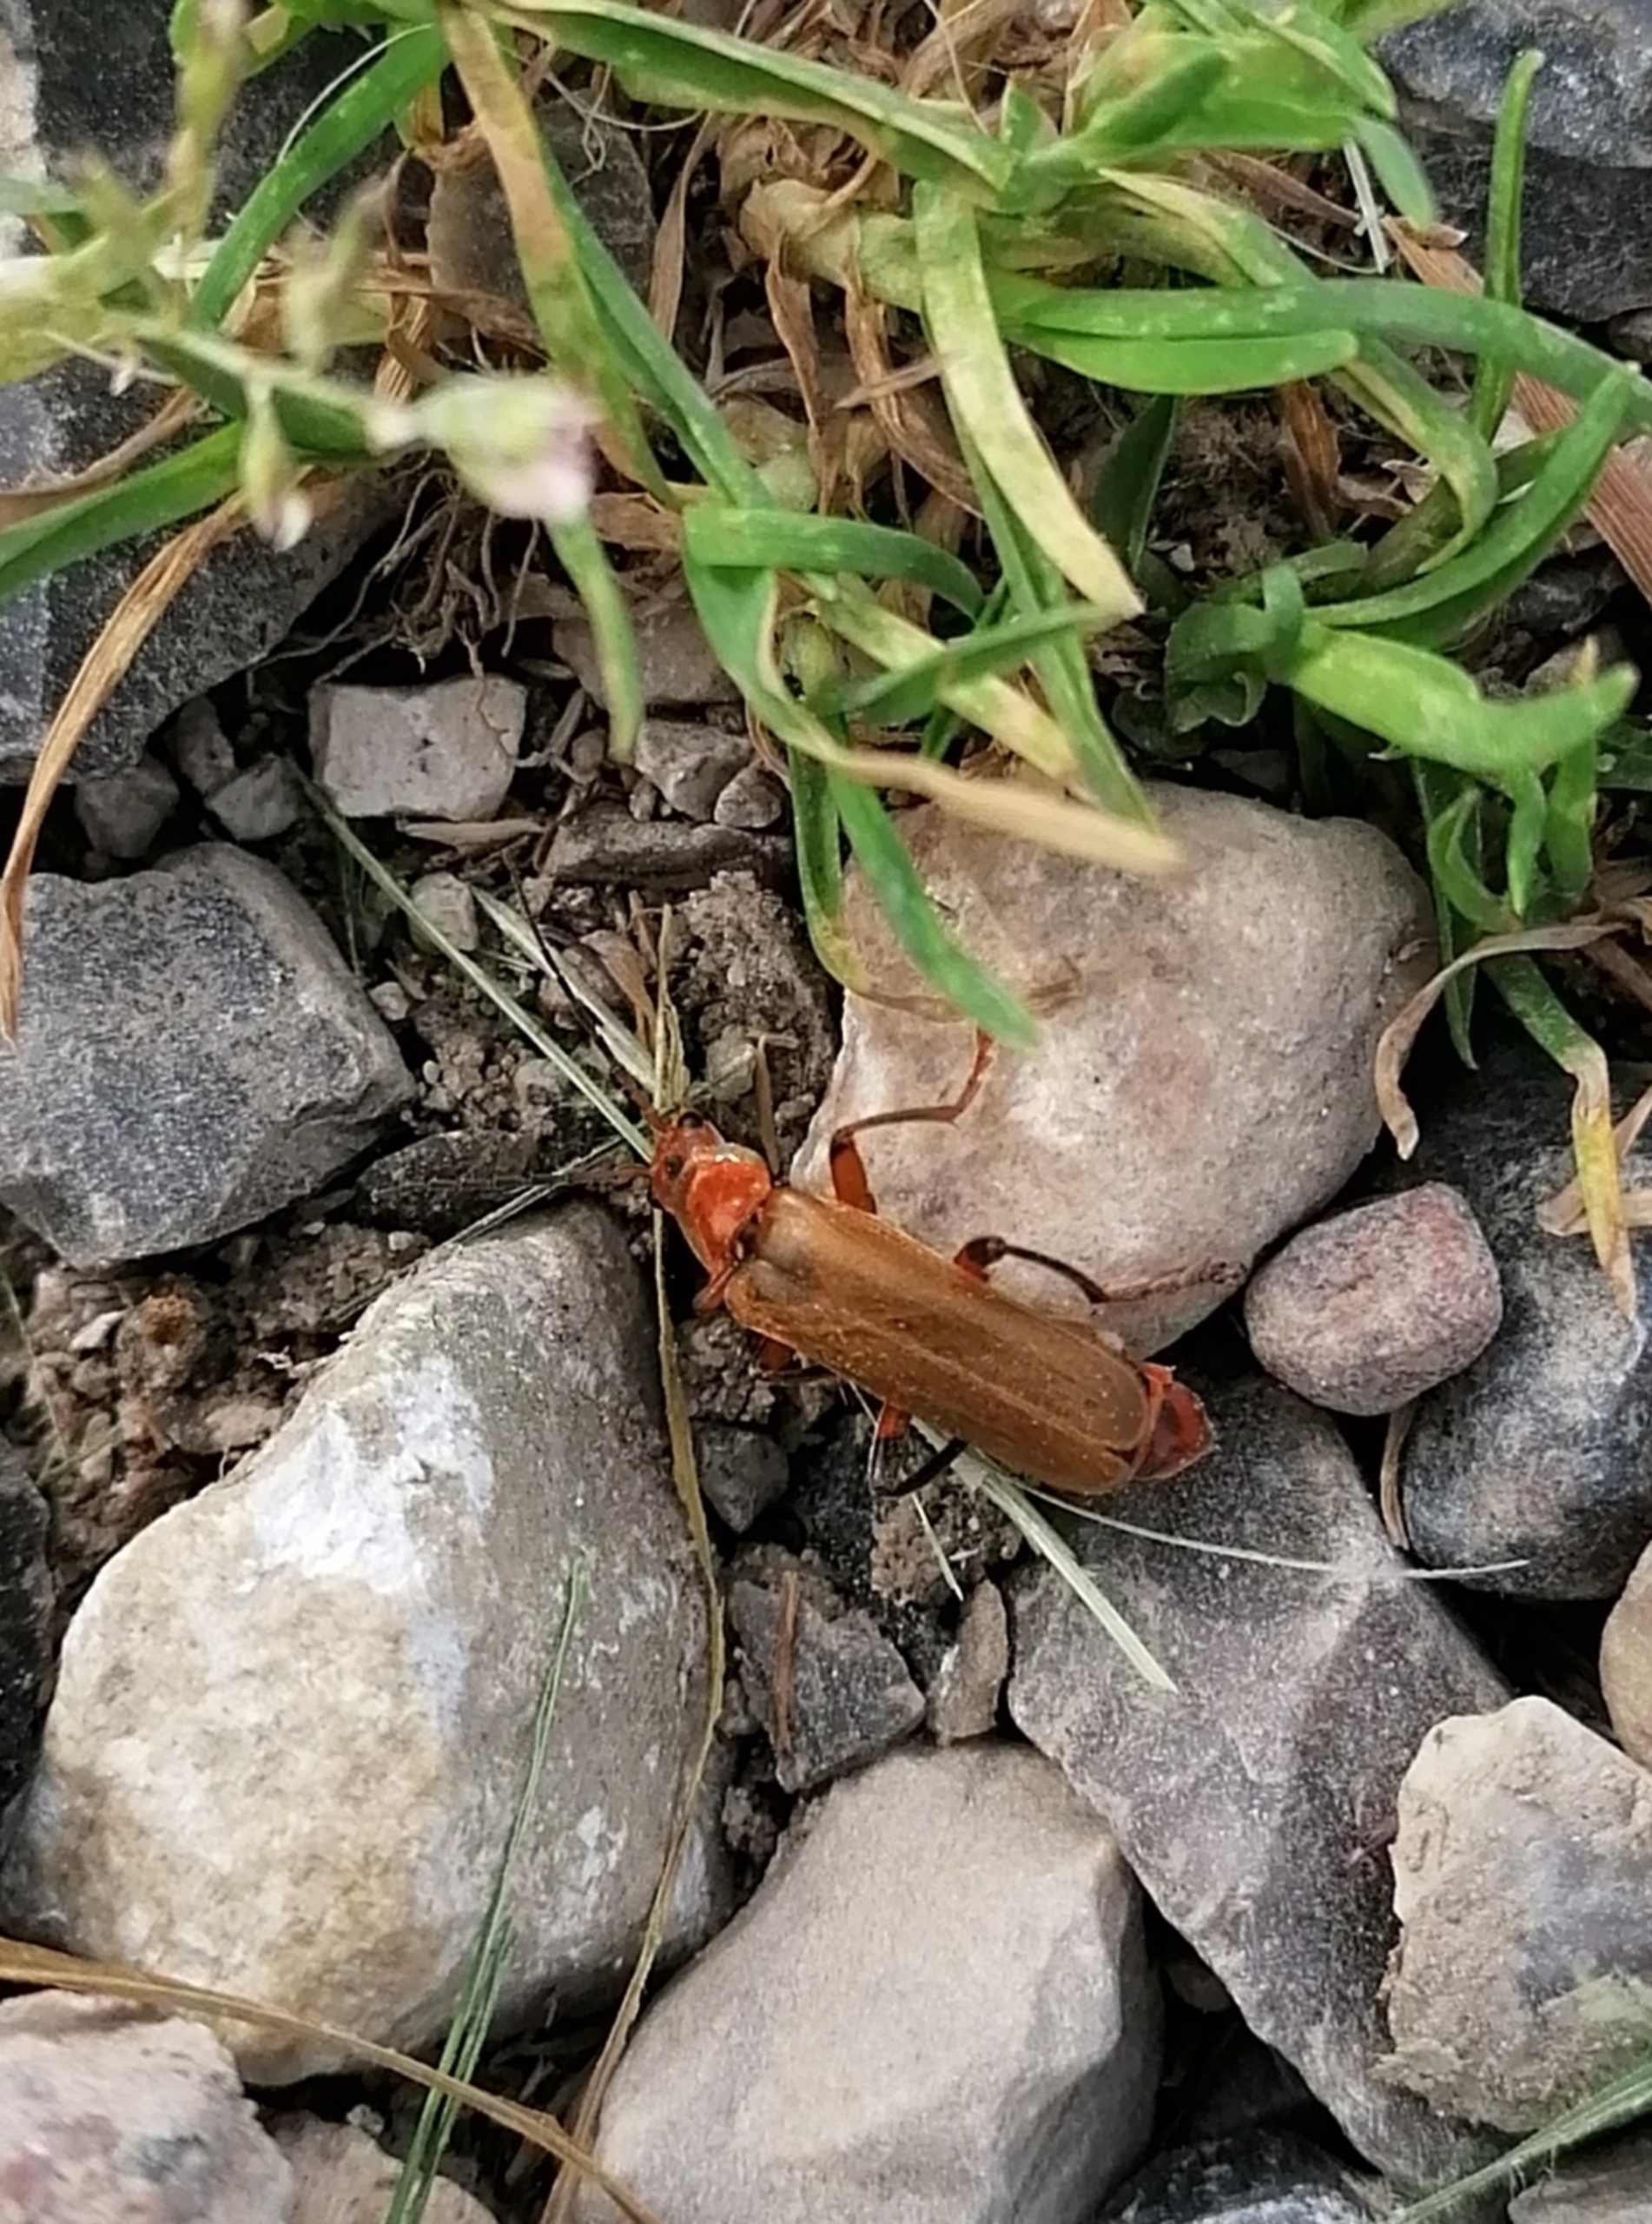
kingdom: Animalia
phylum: Arthropoda
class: Insecta
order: Coleoptera
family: Cantharidae
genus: Cantharis
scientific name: Cantharis livida
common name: Gul blødvinge
